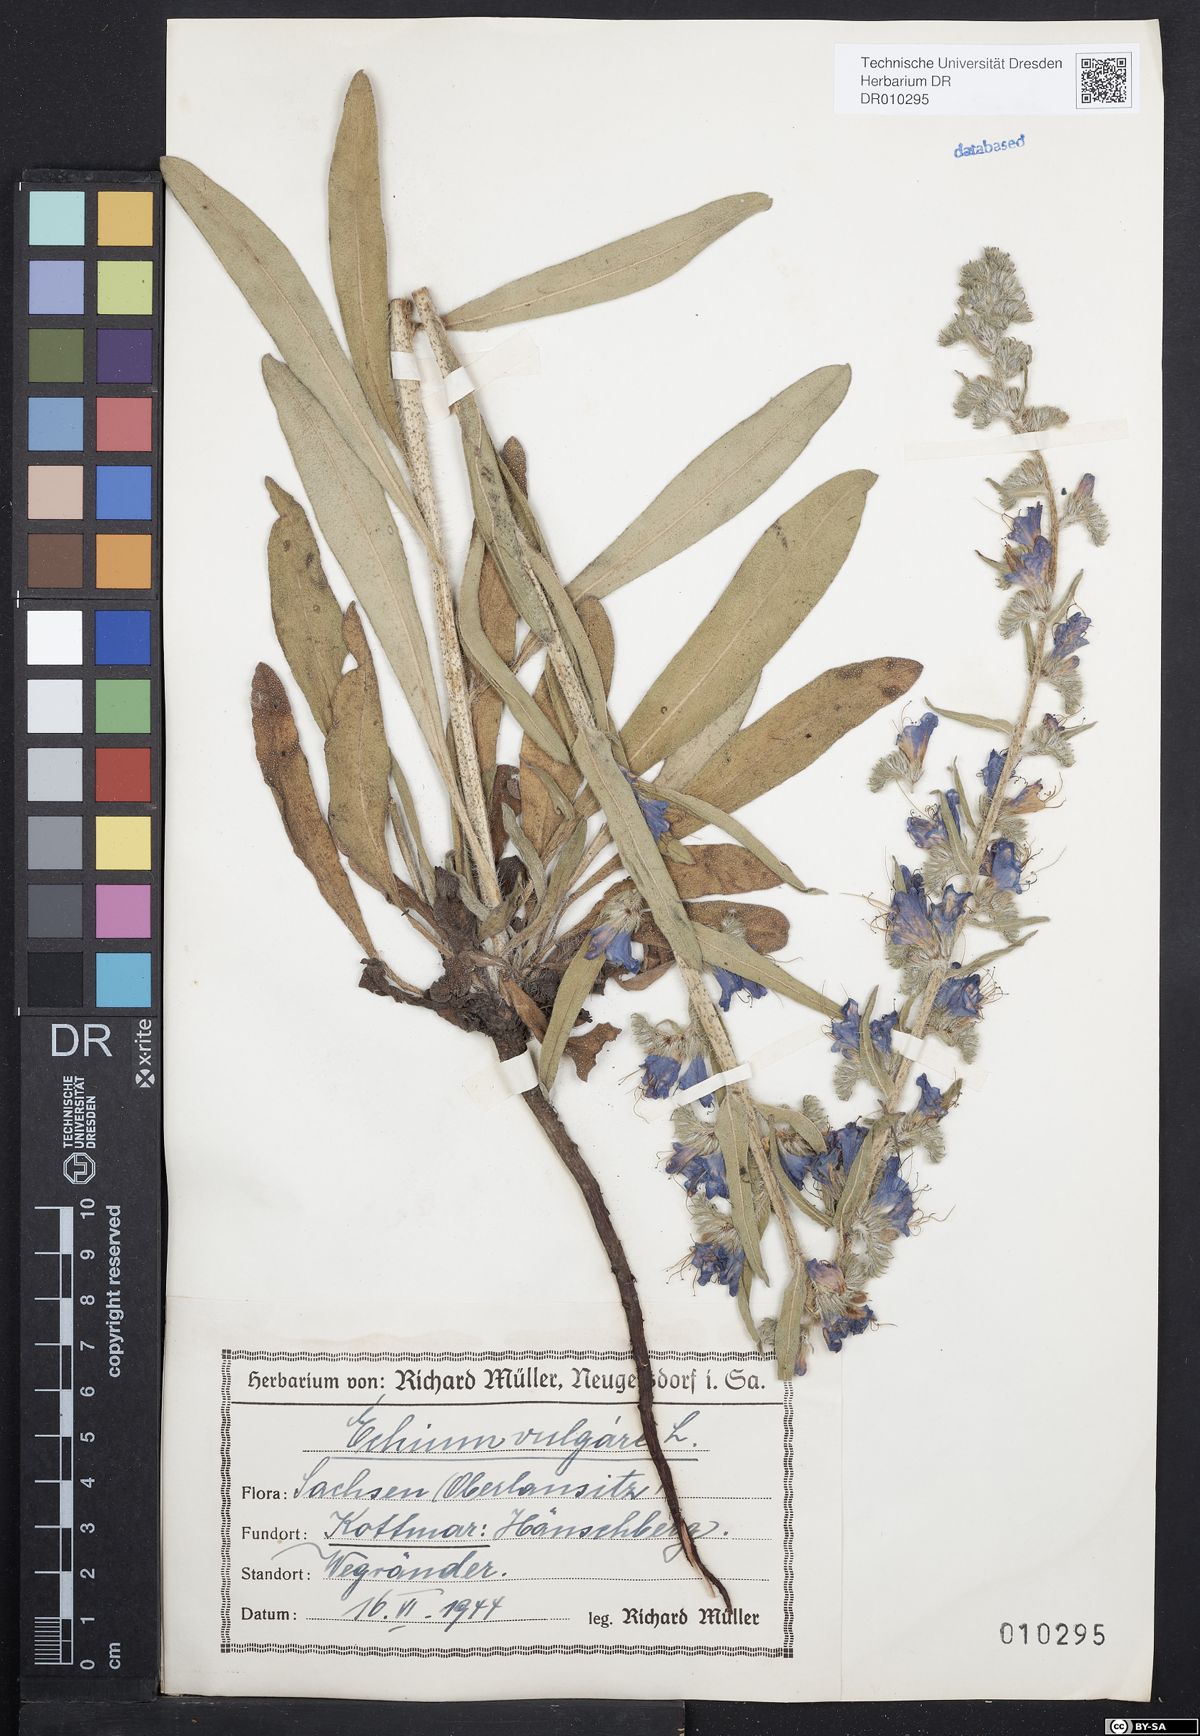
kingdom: Plantae
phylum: Tracheophyta
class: Magnoliopsida
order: Boraginales
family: Boraginaceae
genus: Echium
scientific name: Echium vulgare
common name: Common viper's bugloss
